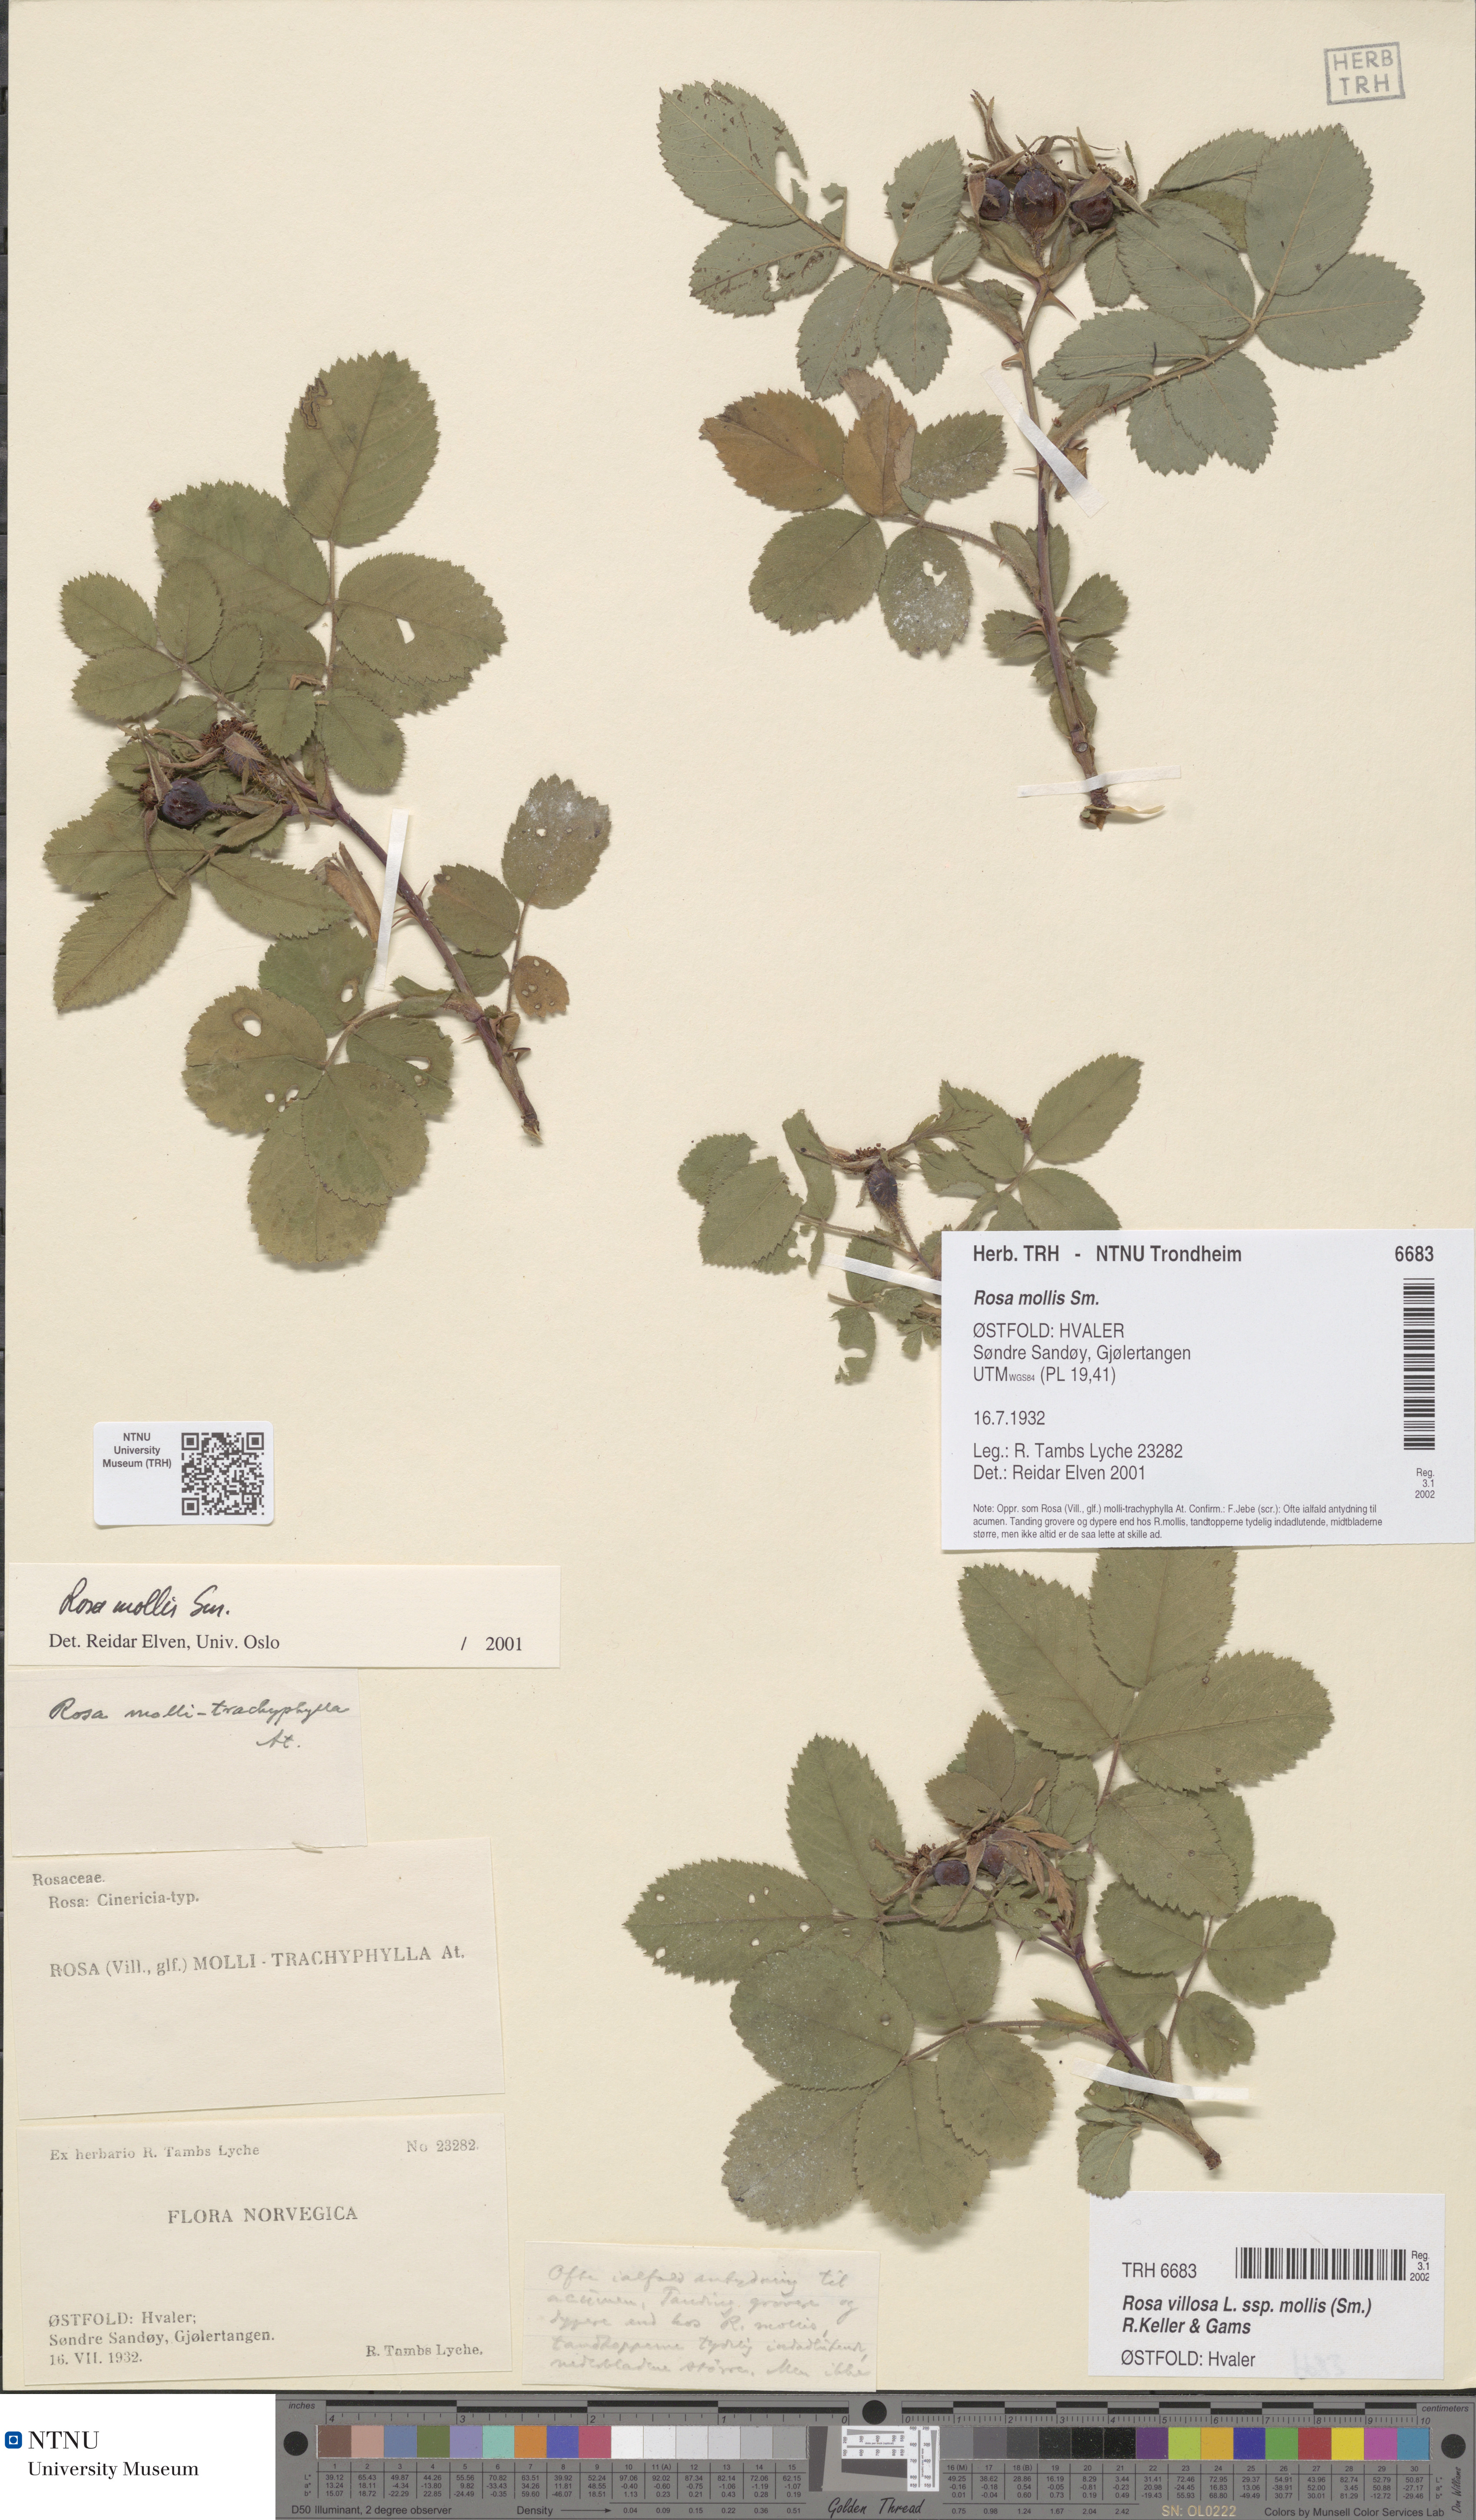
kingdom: Plantae
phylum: Tracheophyta
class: Magnoliopsida
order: Rosales
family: Rosaceae
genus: Rosa
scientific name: Rosa mollis
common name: Rose
